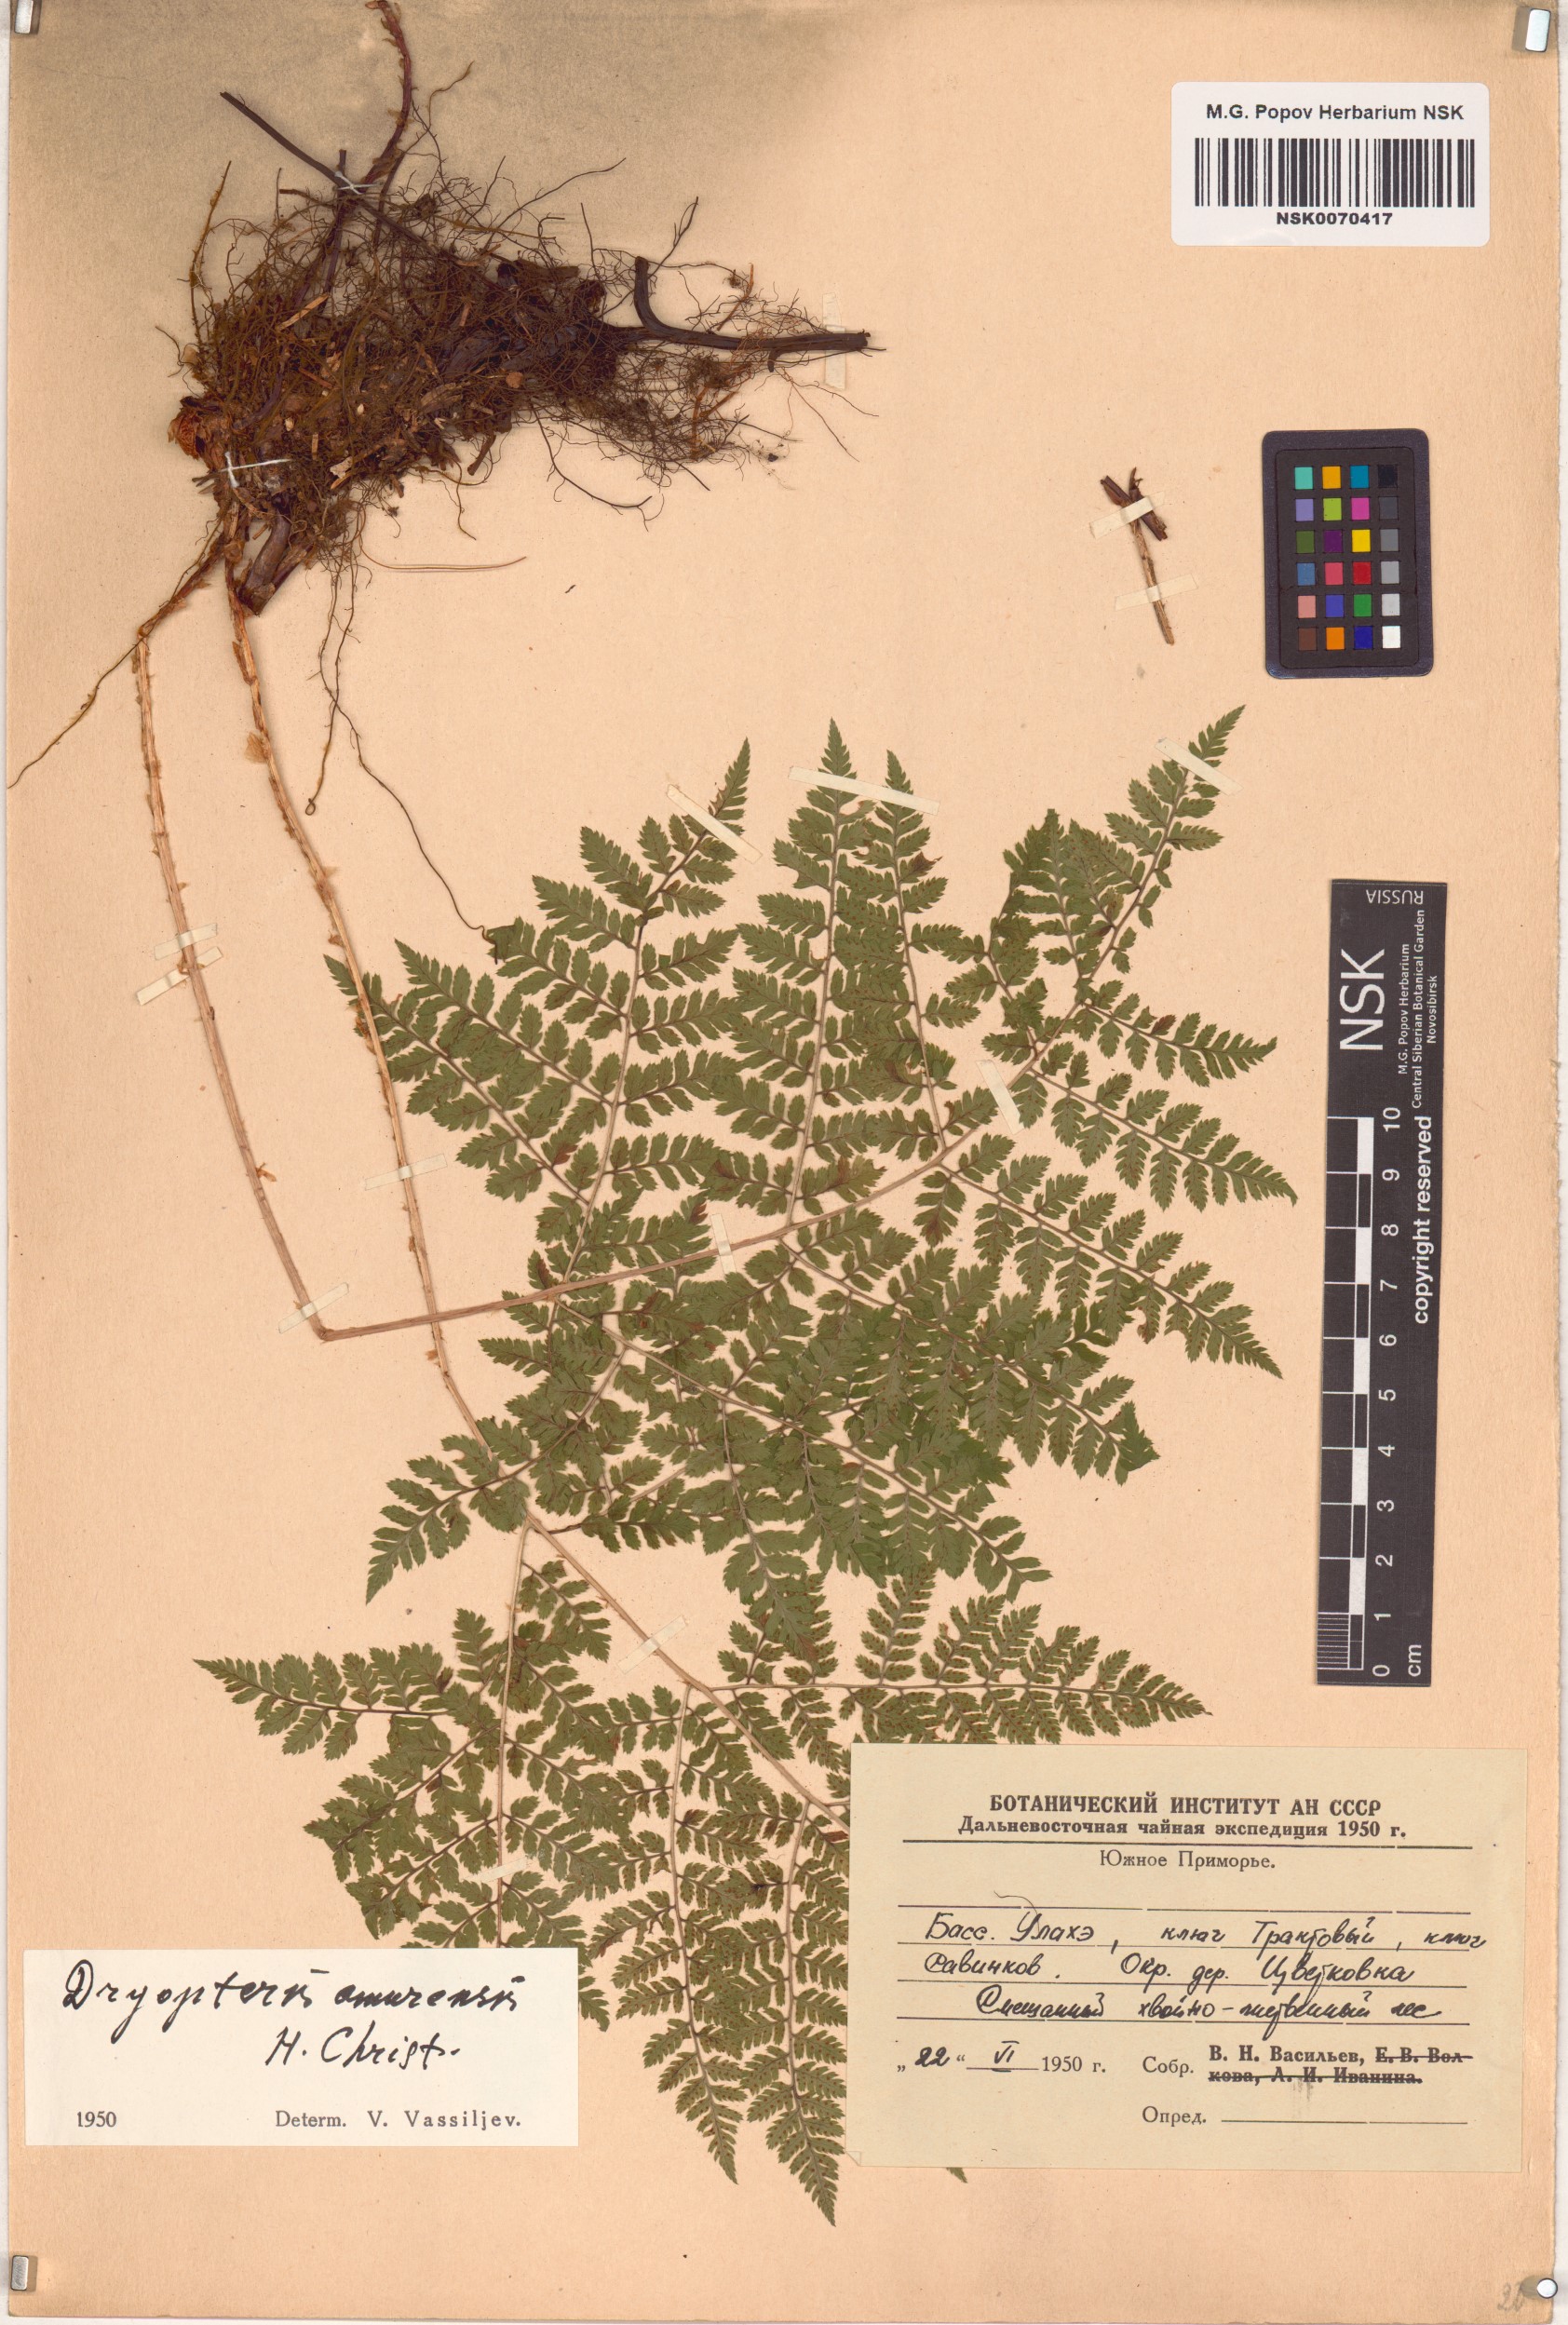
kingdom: Plantae
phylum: Tracheophyta
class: Polypodiopsida
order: Polypodiales
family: Dryopteridaceae
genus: Dryopteris
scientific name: Dryopteris amurensis
